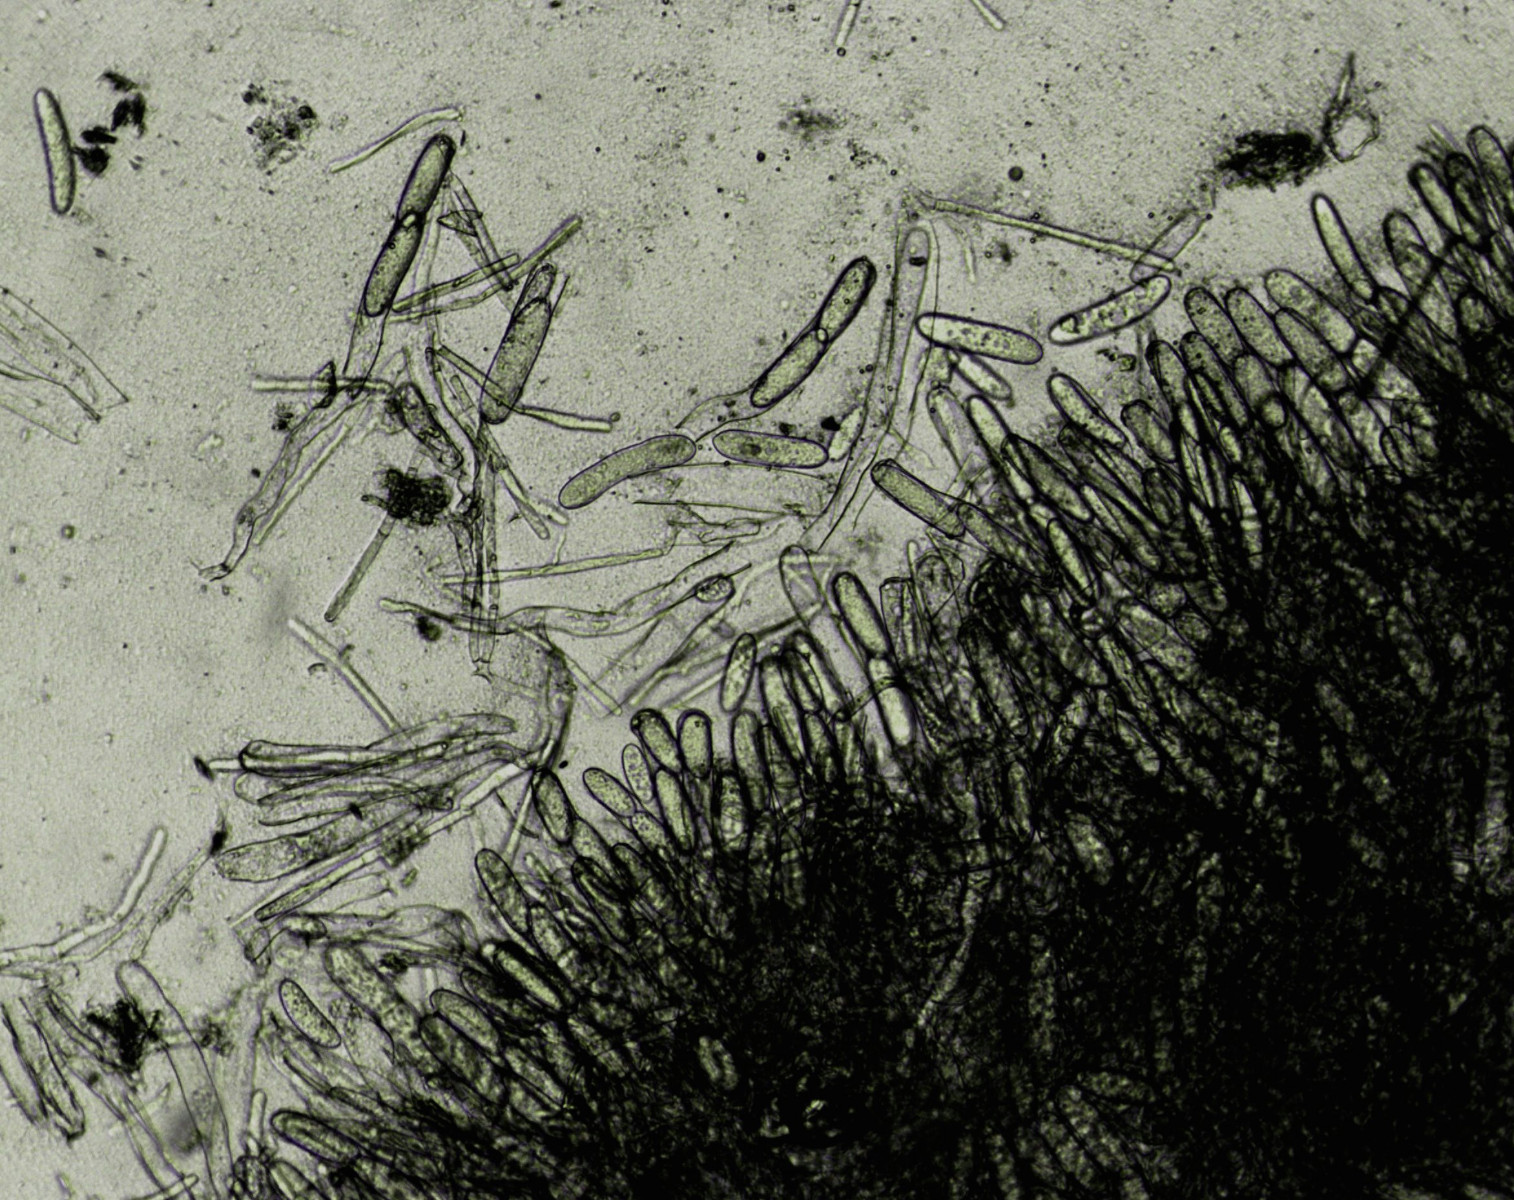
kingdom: Fungi
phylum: Ascomycota
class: Pezizomycetes
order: Pezizales
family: Morchellaceae
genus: Verpa
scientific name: Verpa bohemica
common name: rynket klokkemorkel
